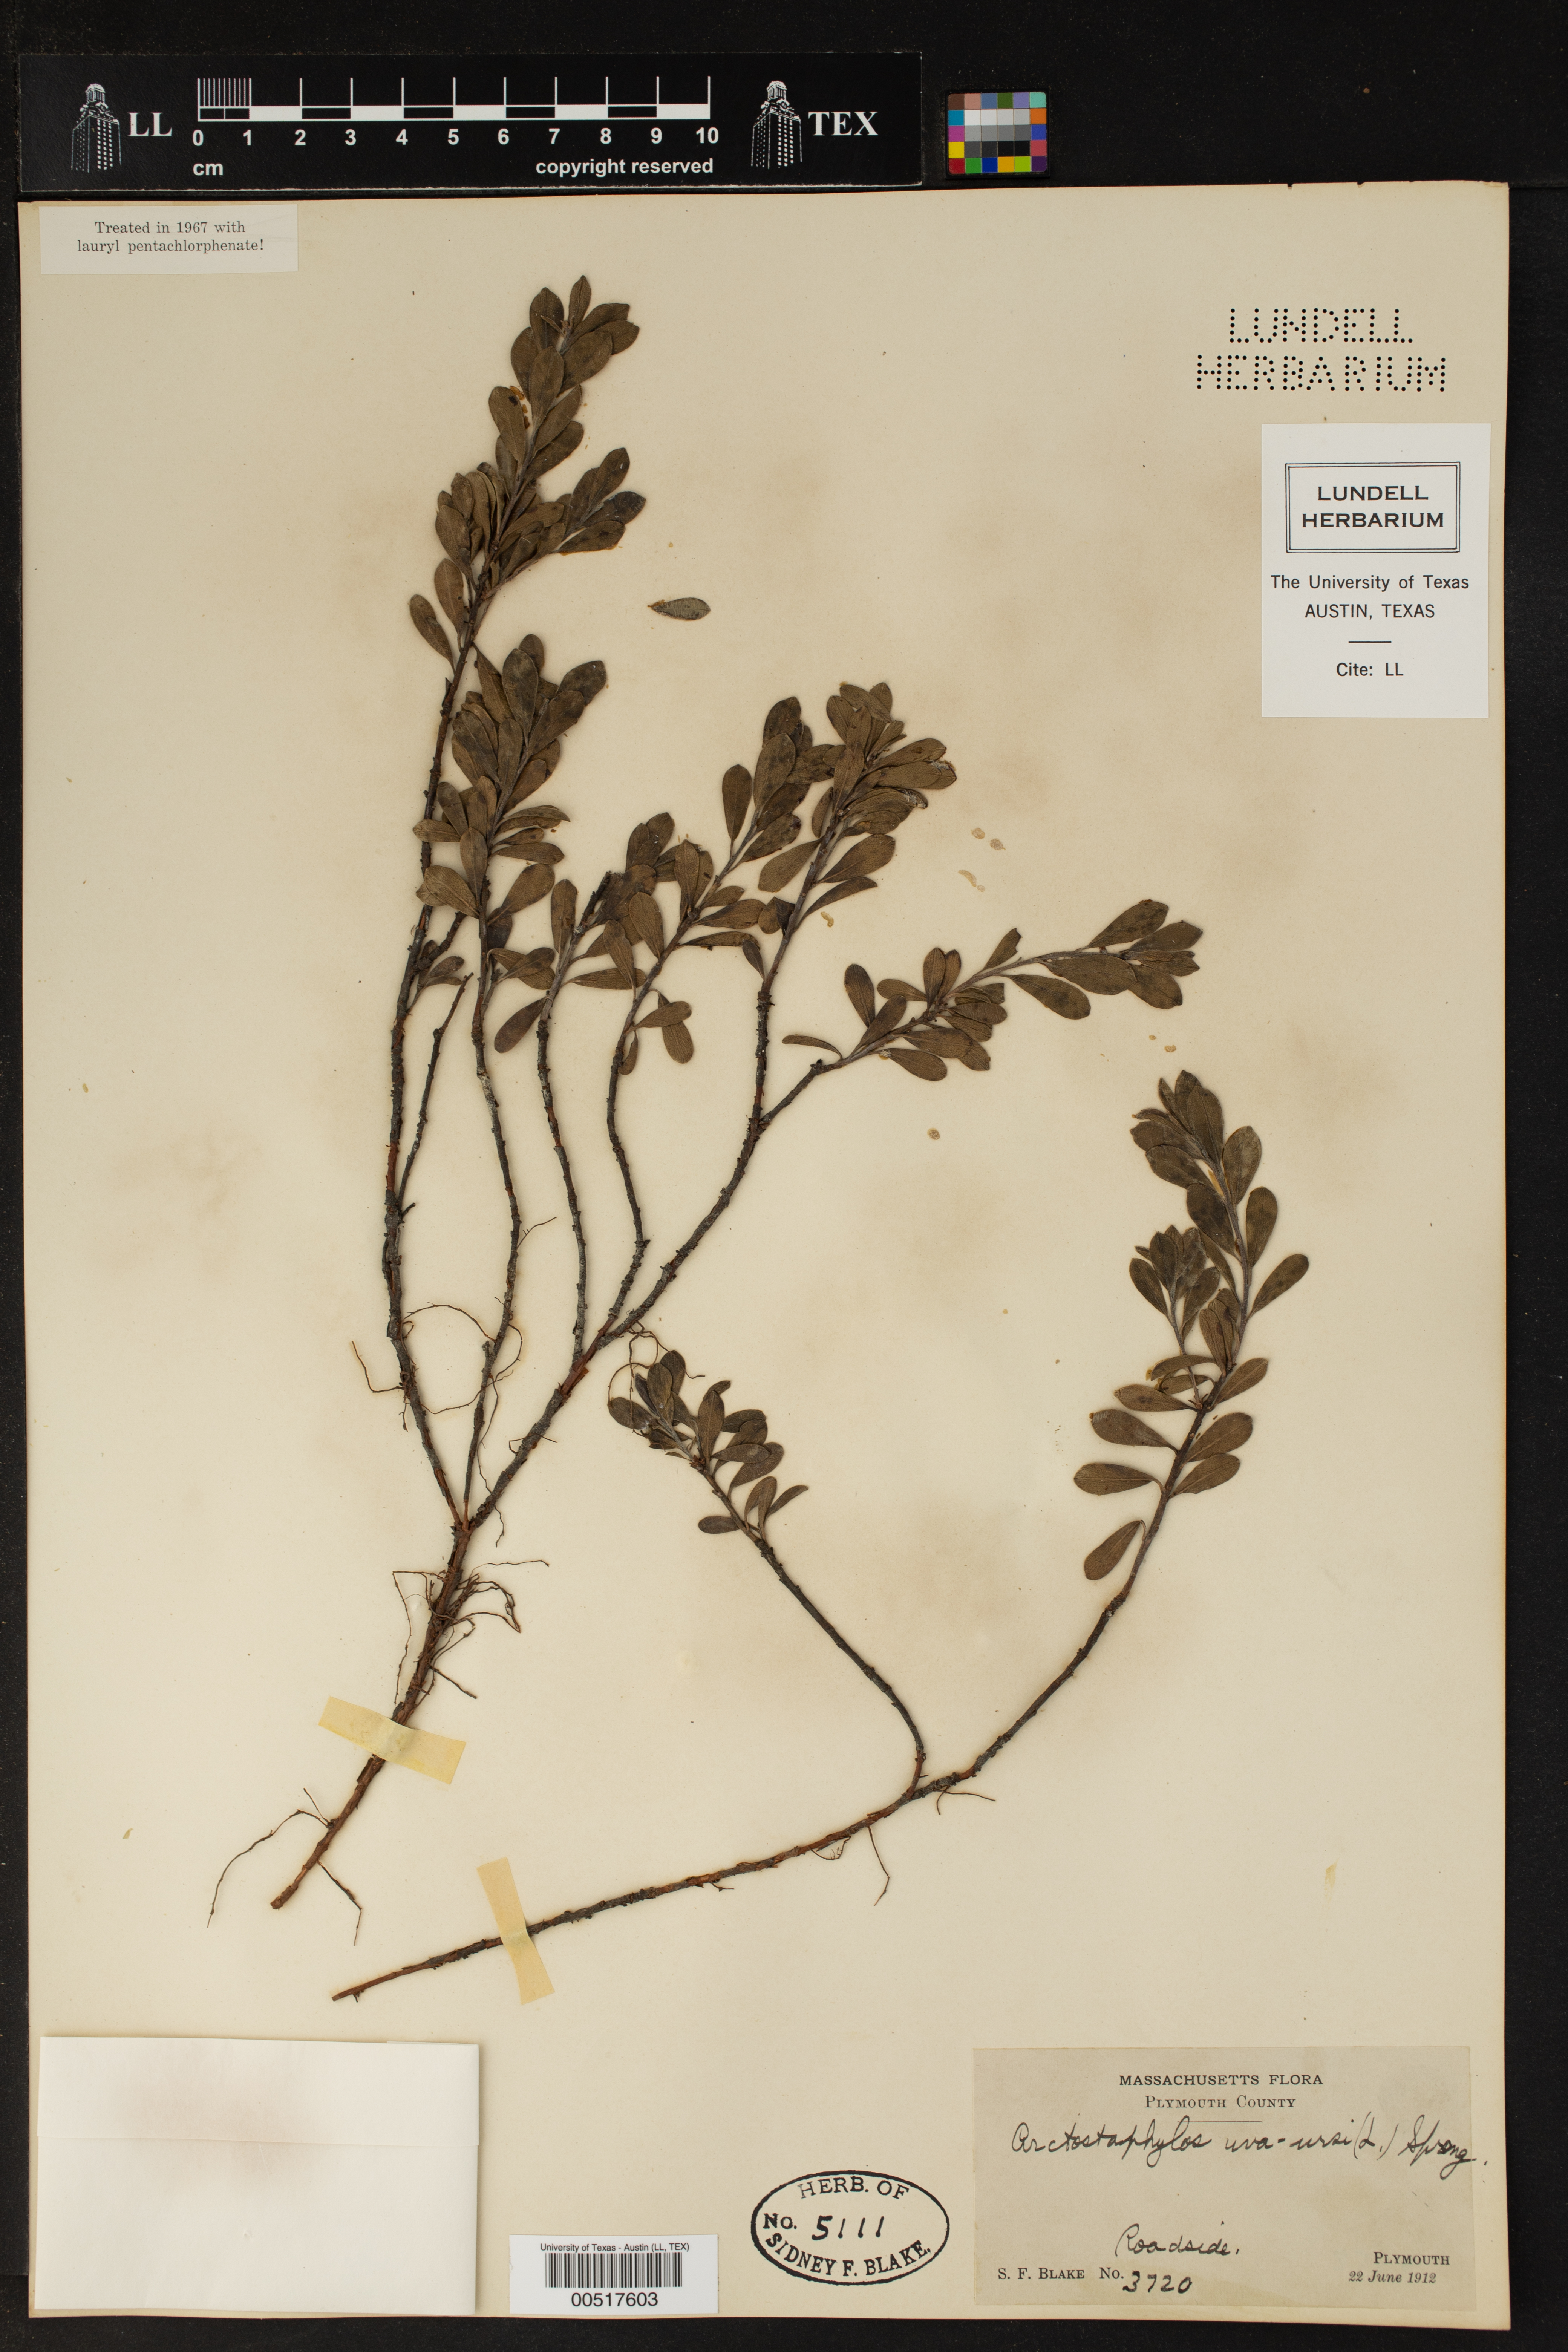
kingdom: Plantae
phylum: Tracheophyta
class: Magnoliopsida
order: Ericales
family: Ericaceae
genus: Arctostaphylos
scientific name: Arctostaphylos uva-ursi
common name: Bearberry
